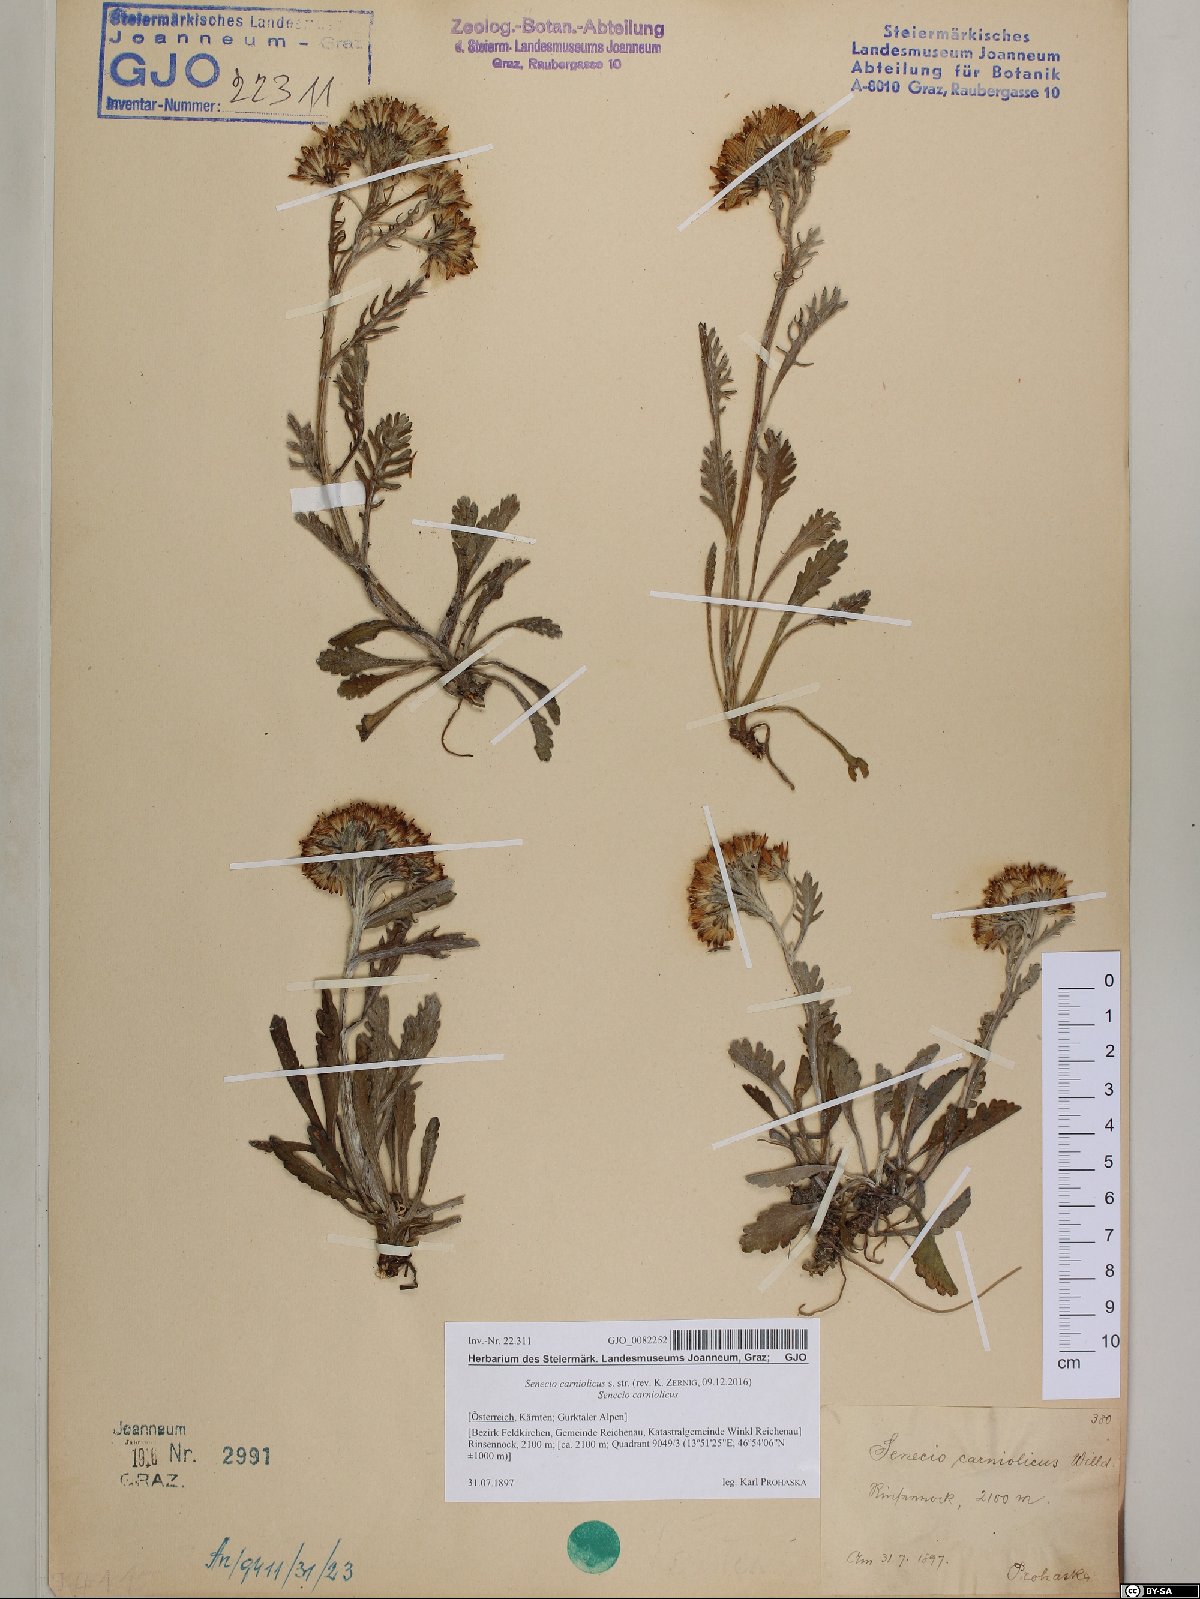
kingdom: Plantae
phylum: Tracheophyta
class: Magnoliopsida
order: Asterales
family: Asteraceae
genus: Jacobaea
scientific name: Jacobaea carniolica
